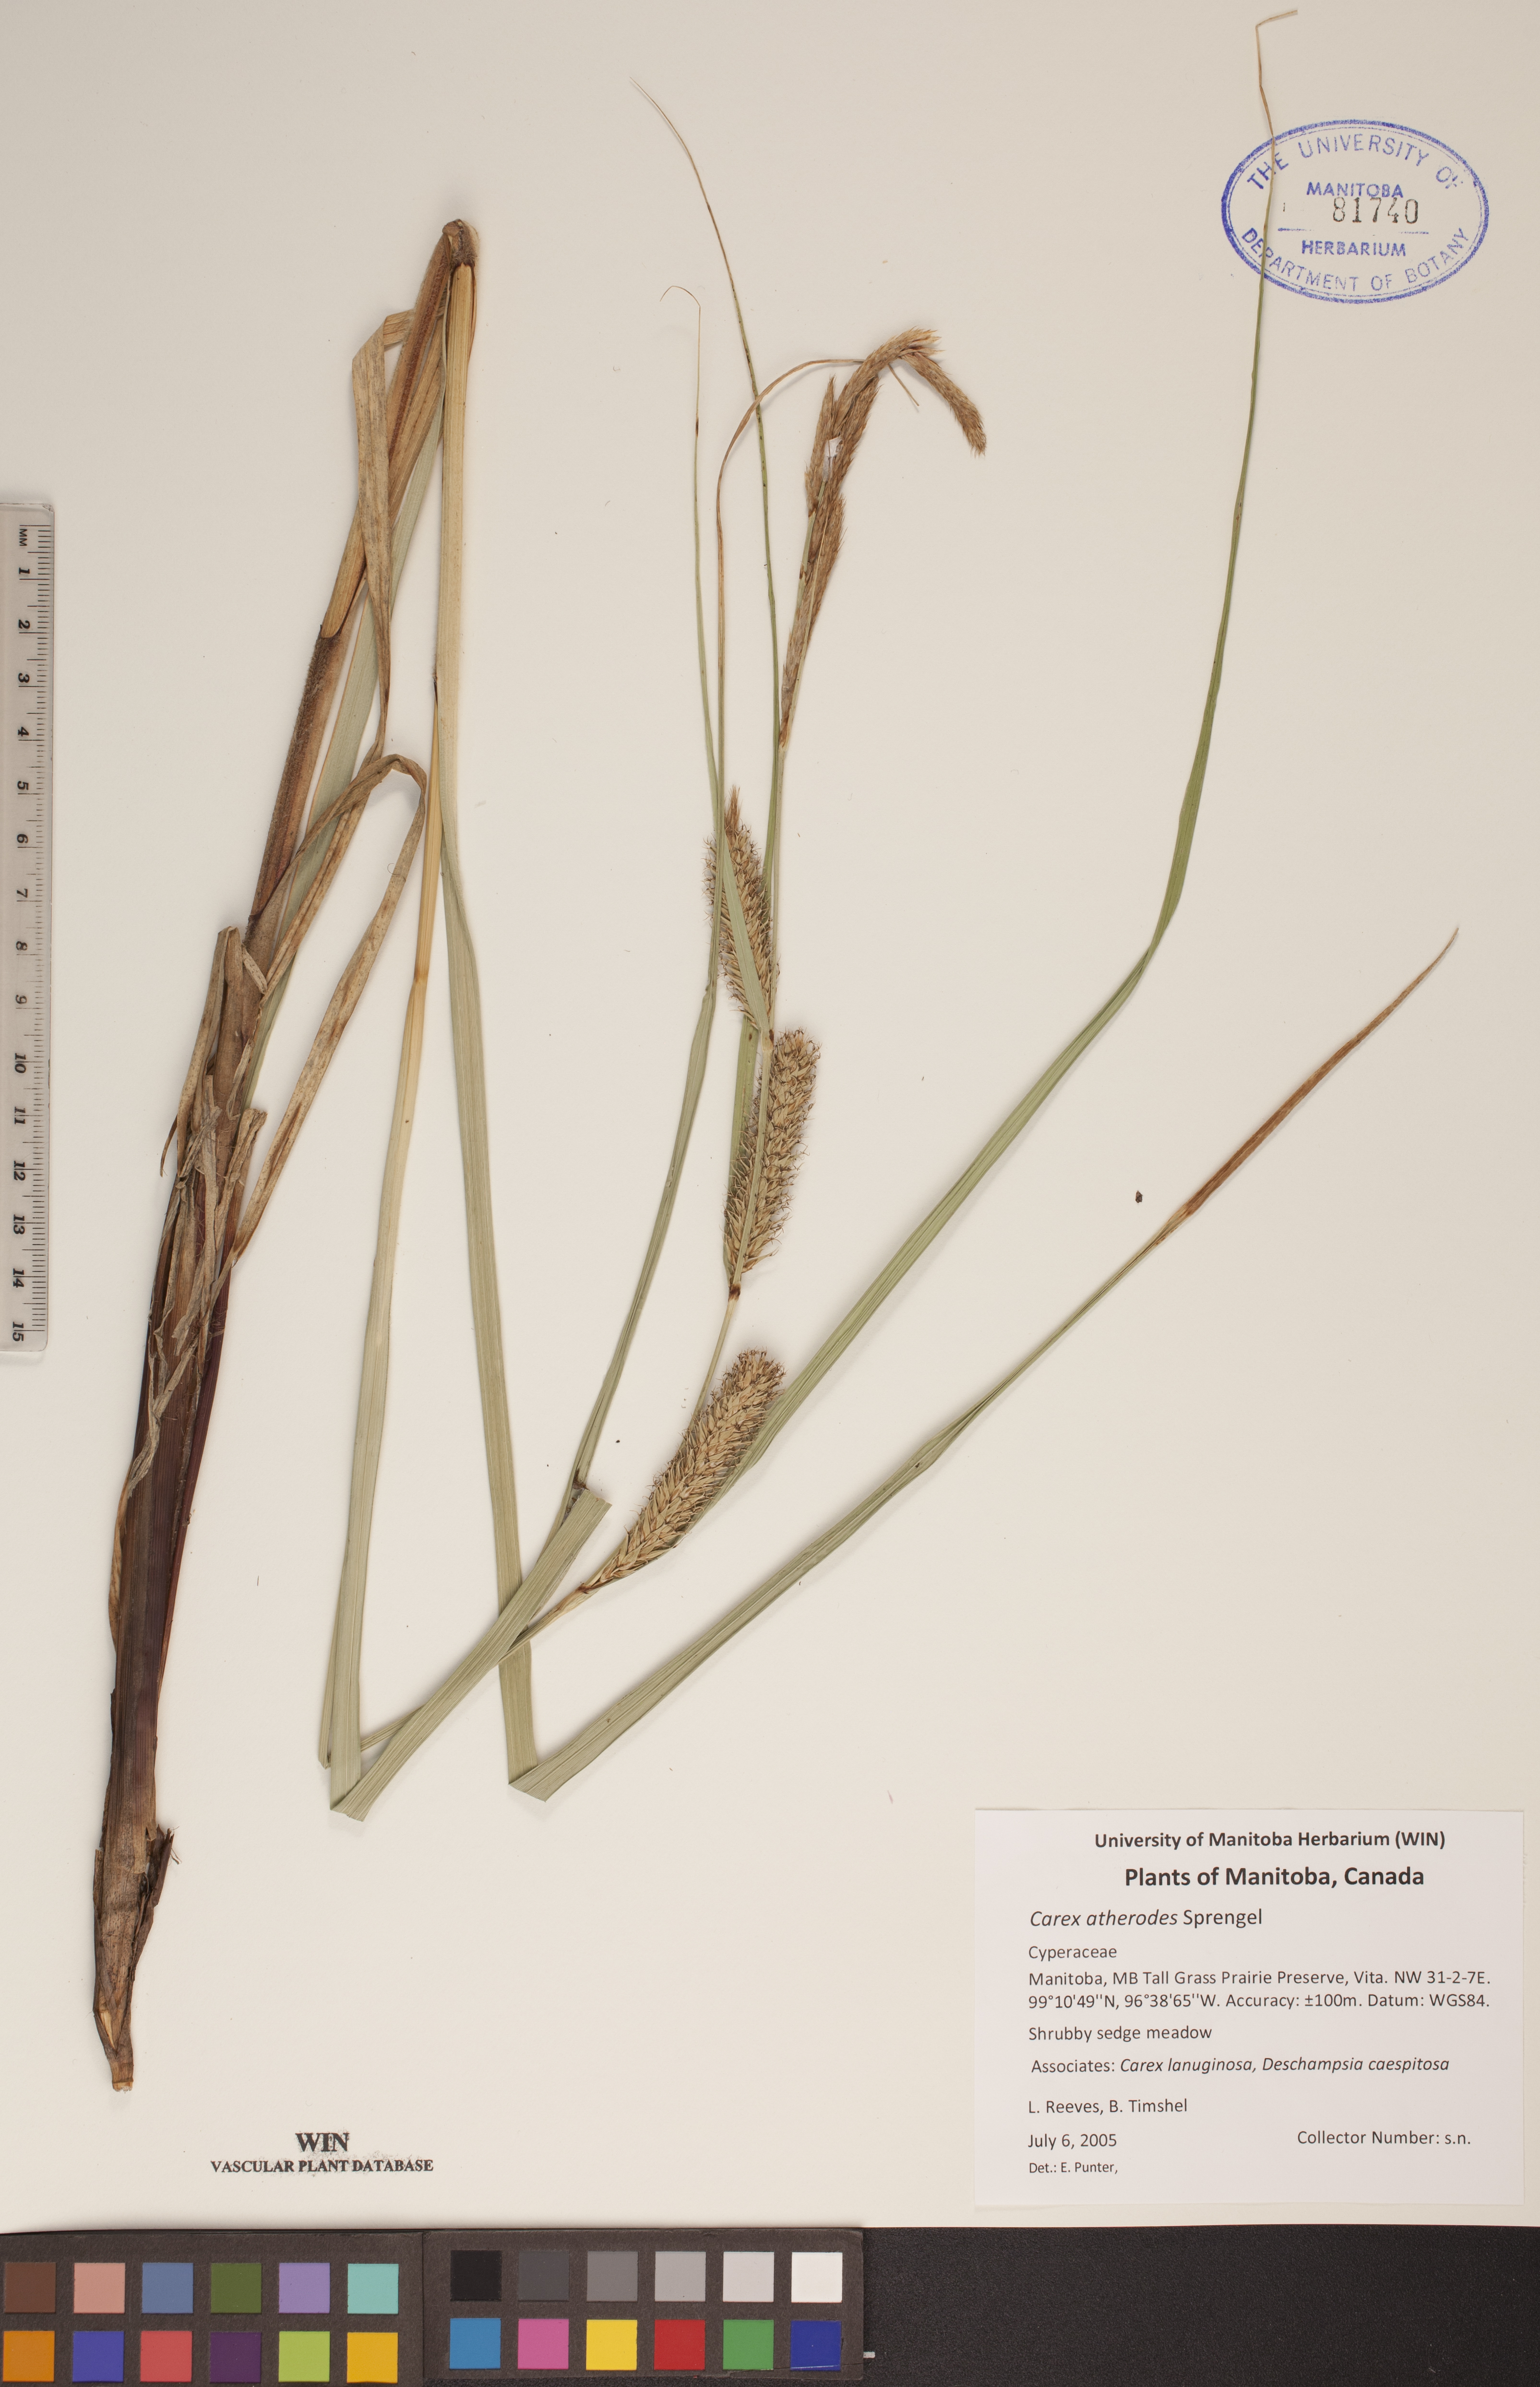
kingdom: Plantae
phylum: Tracheophyta
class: Liliopsida
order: Poales
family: Cyperaceae
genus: Carex
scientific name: Carex atherodes
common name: Wheat sedge
